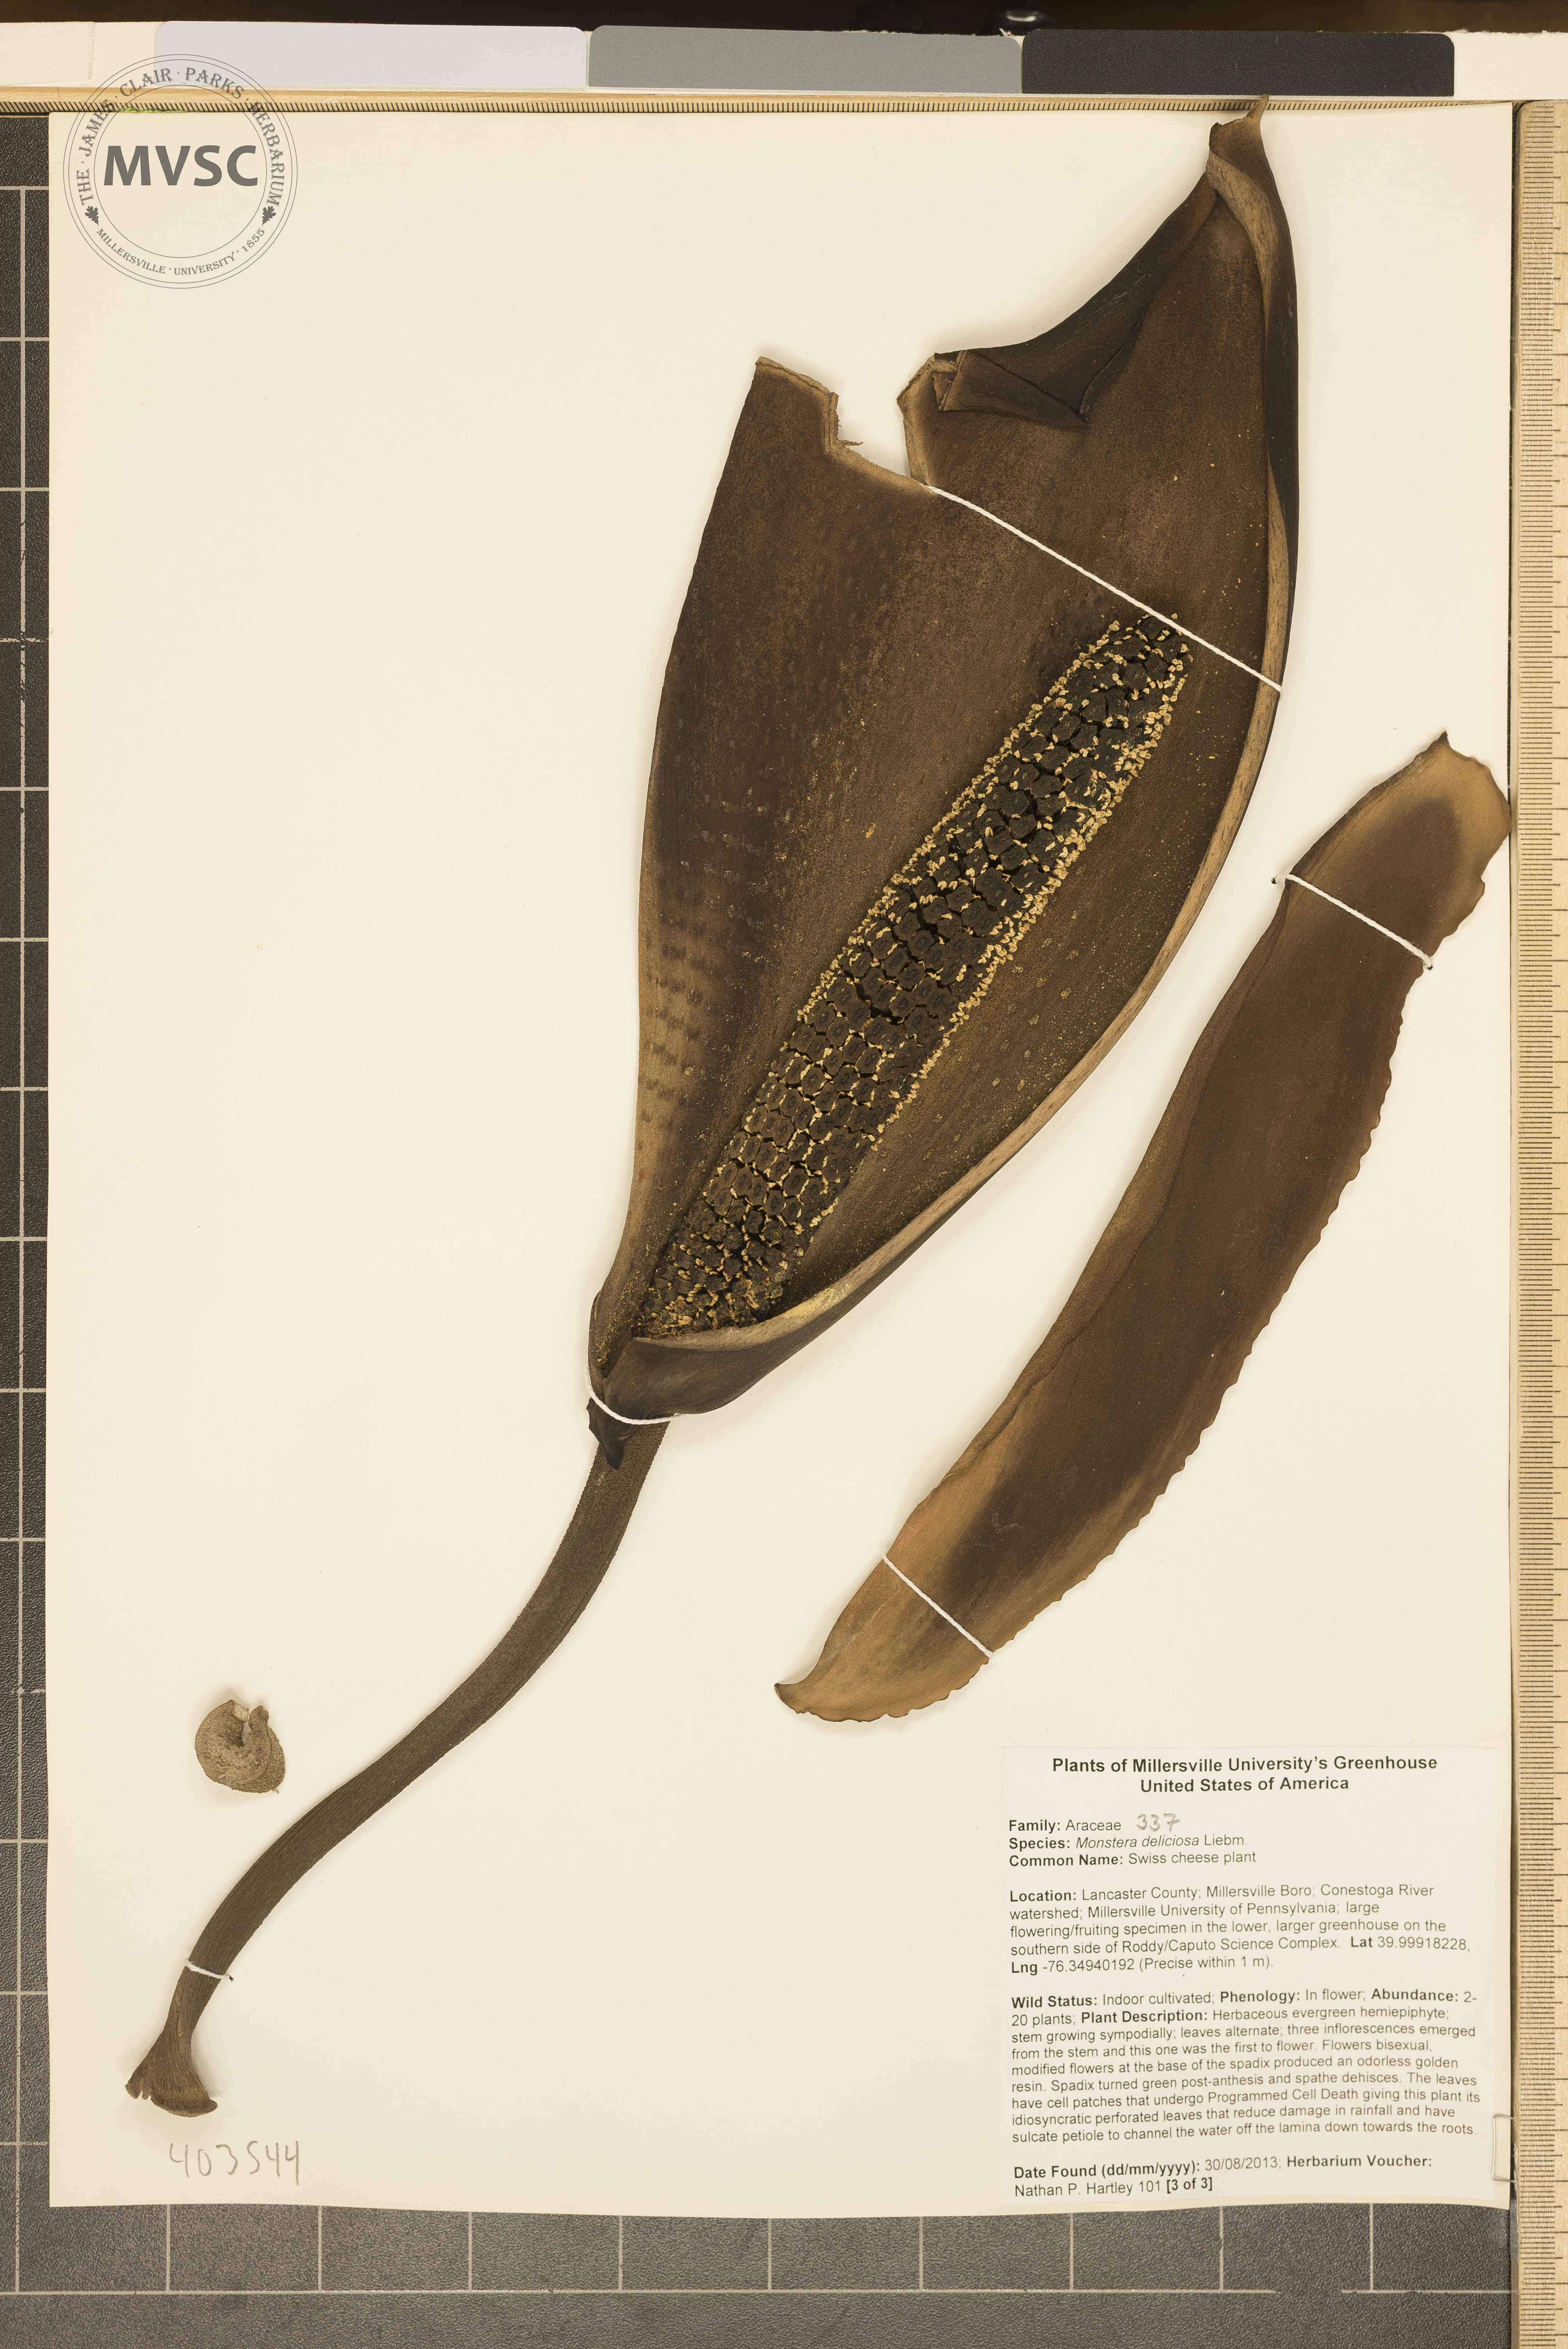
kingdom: Plantae
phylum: Tracheophyta
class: Liliopsida
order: Alismatales
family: Araceae
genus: Monstera
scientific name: Monstera deliciosa
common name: Swiss cheese plant
